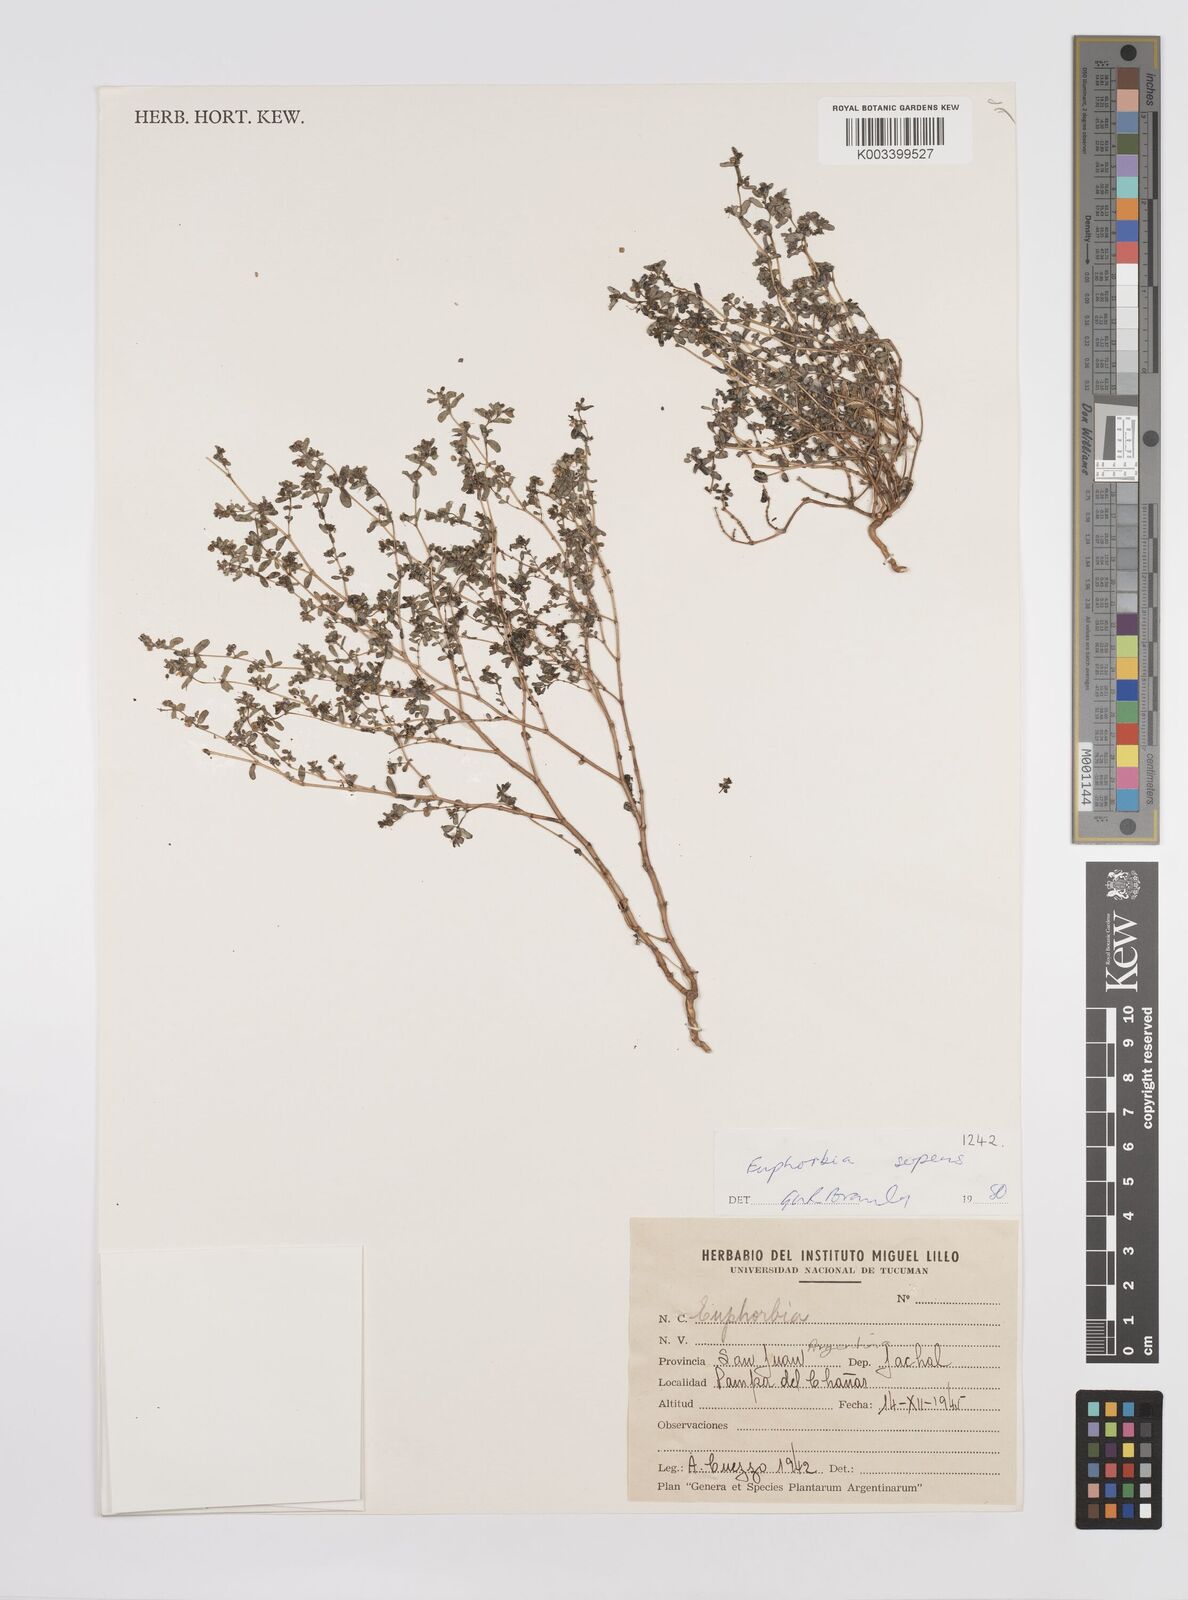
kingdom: Plantae
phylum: Tracheophyta
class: Magnoliopsida
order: Malpighiales
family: Euphorbiaceae
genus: Euphorbia
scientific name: Euphorbia
